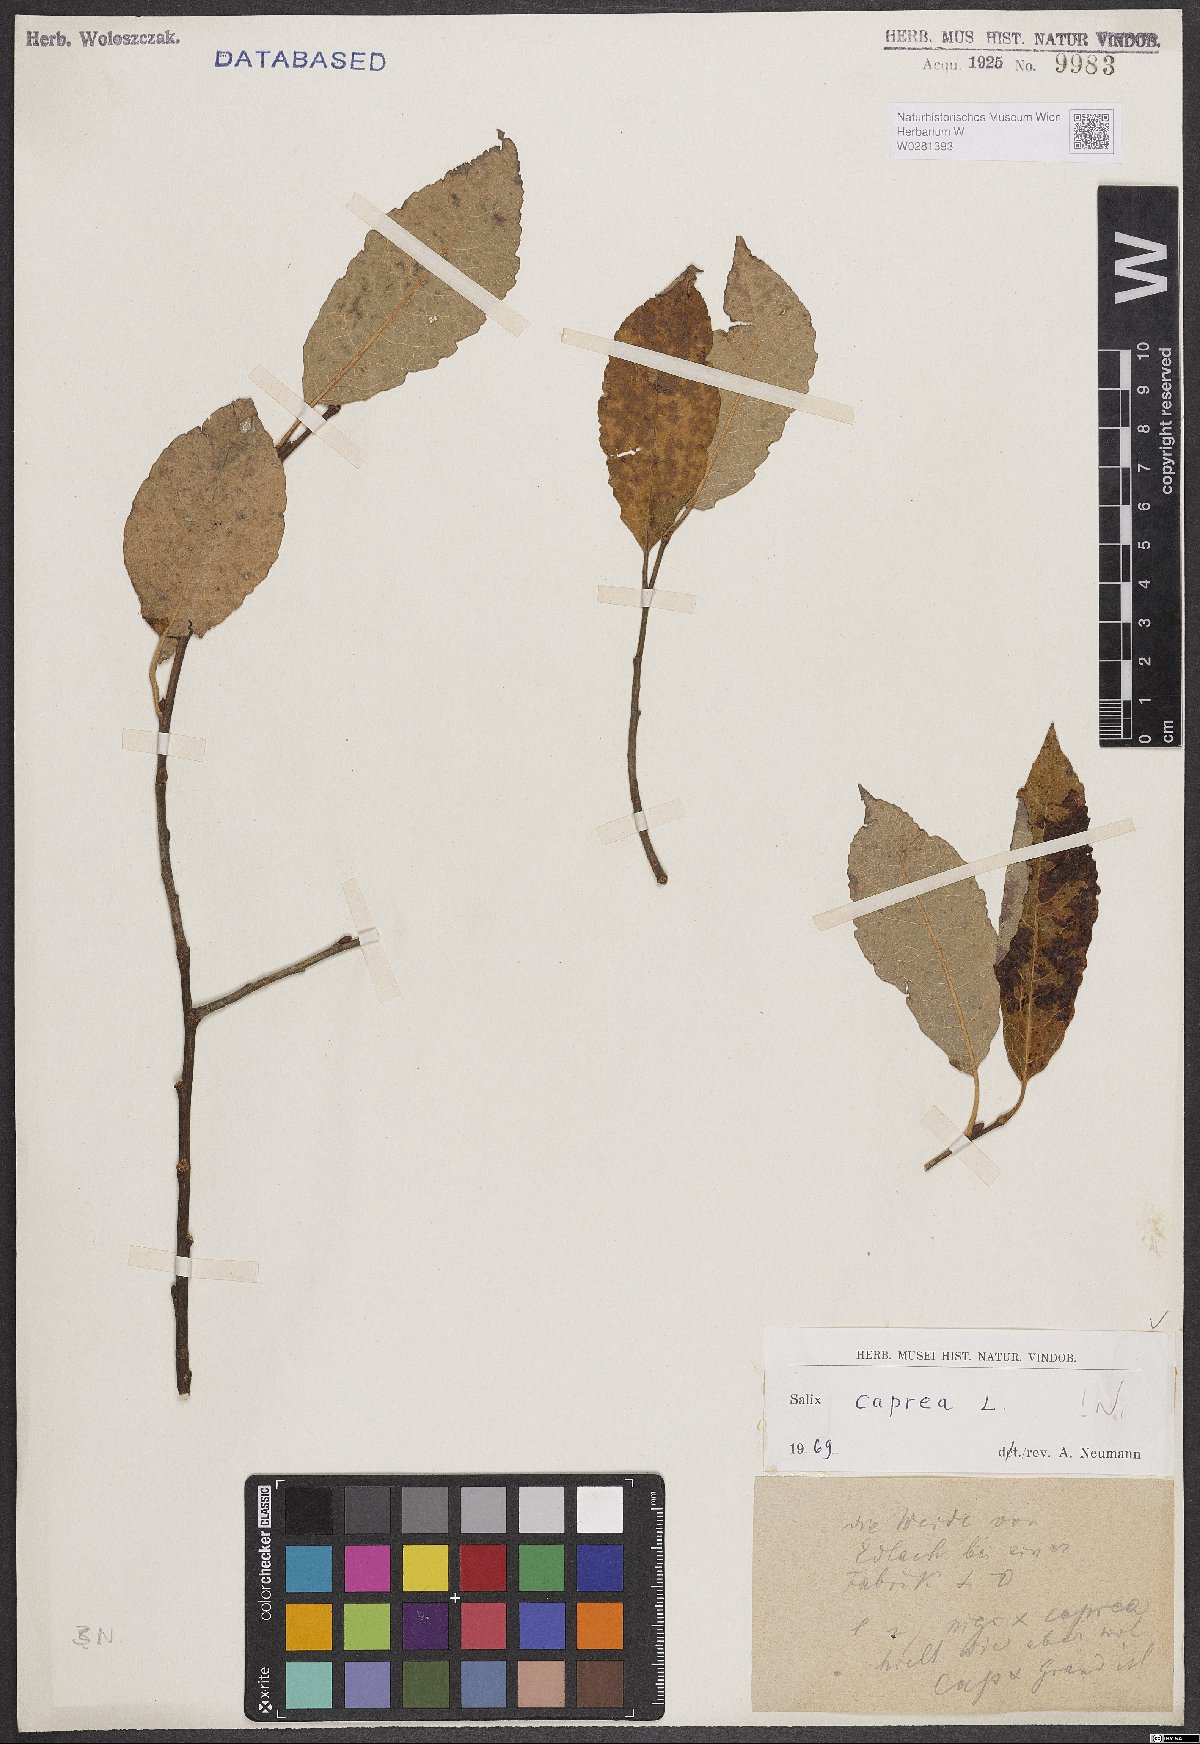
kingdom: Plantae
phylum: Tracheophyta
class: Magnoliopsida
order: Malpighiales
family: Salicaceae
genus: Salix
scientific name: Salix caprea
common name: Goat willow
